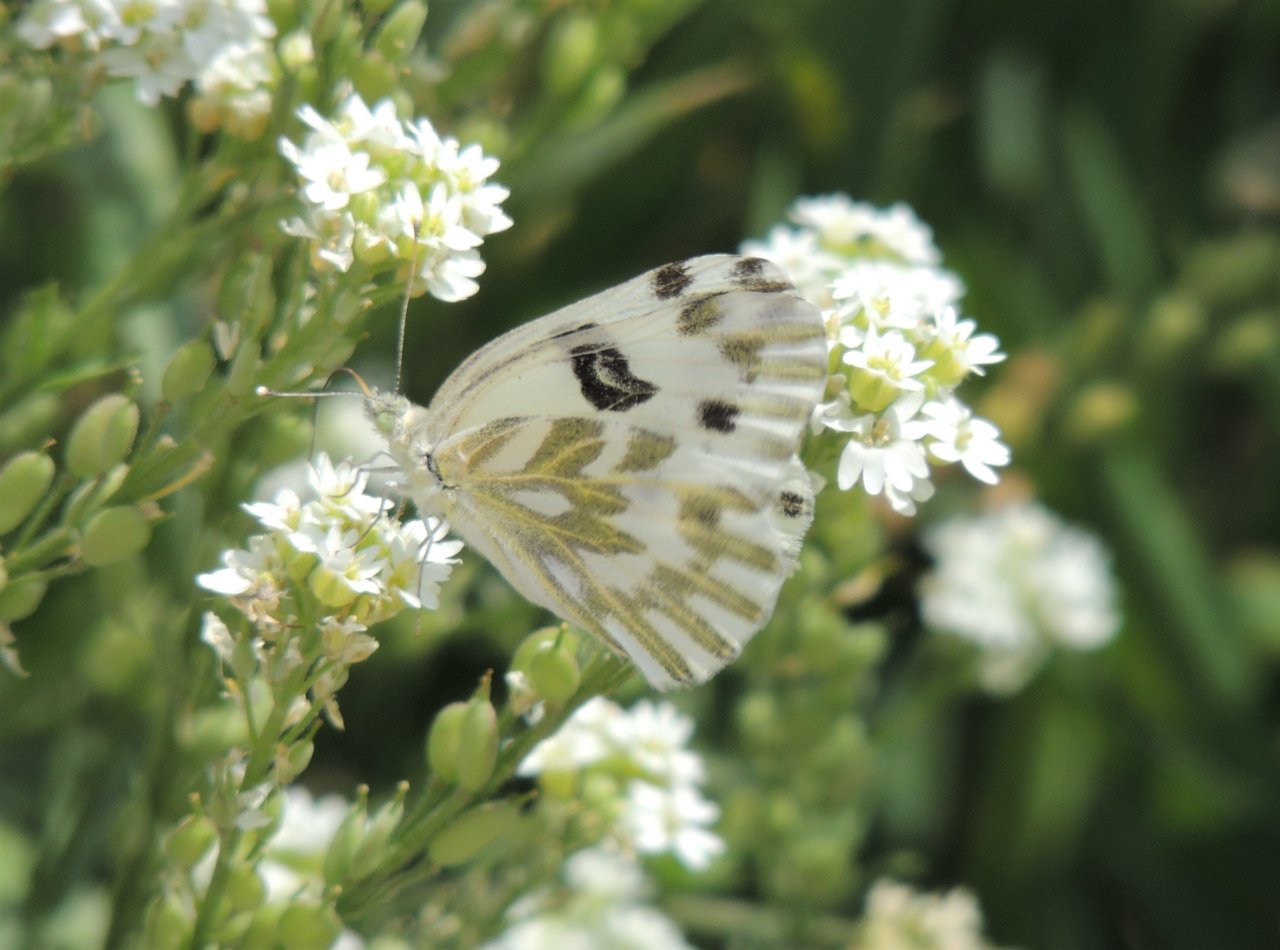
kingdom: Animalia
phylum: Arthropoda
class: Insecta
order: Lepidoptera
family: Pieridae
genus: Pontia
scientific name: Pontia beckerii
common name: Becker's White
